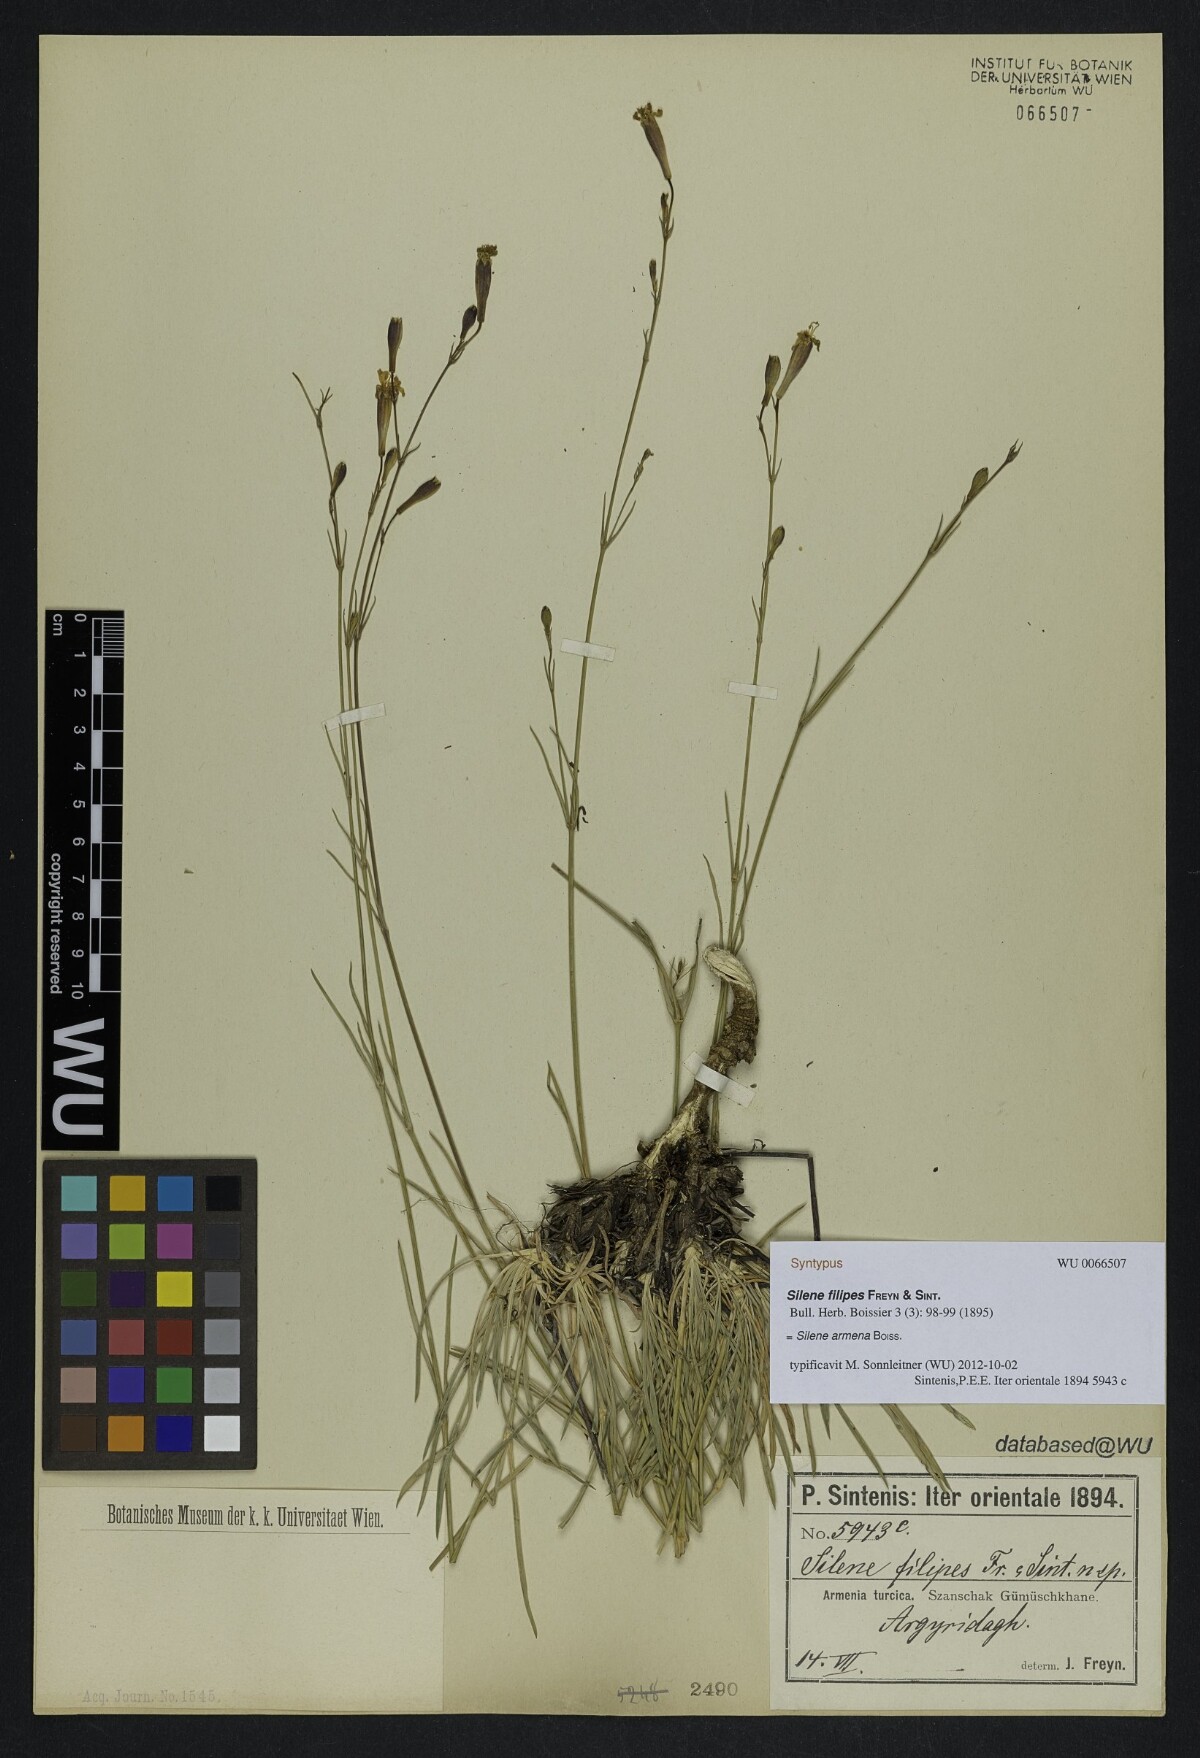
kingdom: Plantae
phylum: Tracheophyta
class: Magnoliopsida
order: Caryophyllales
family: Caryophyllaceae
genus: Silene
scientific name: Silene armena
